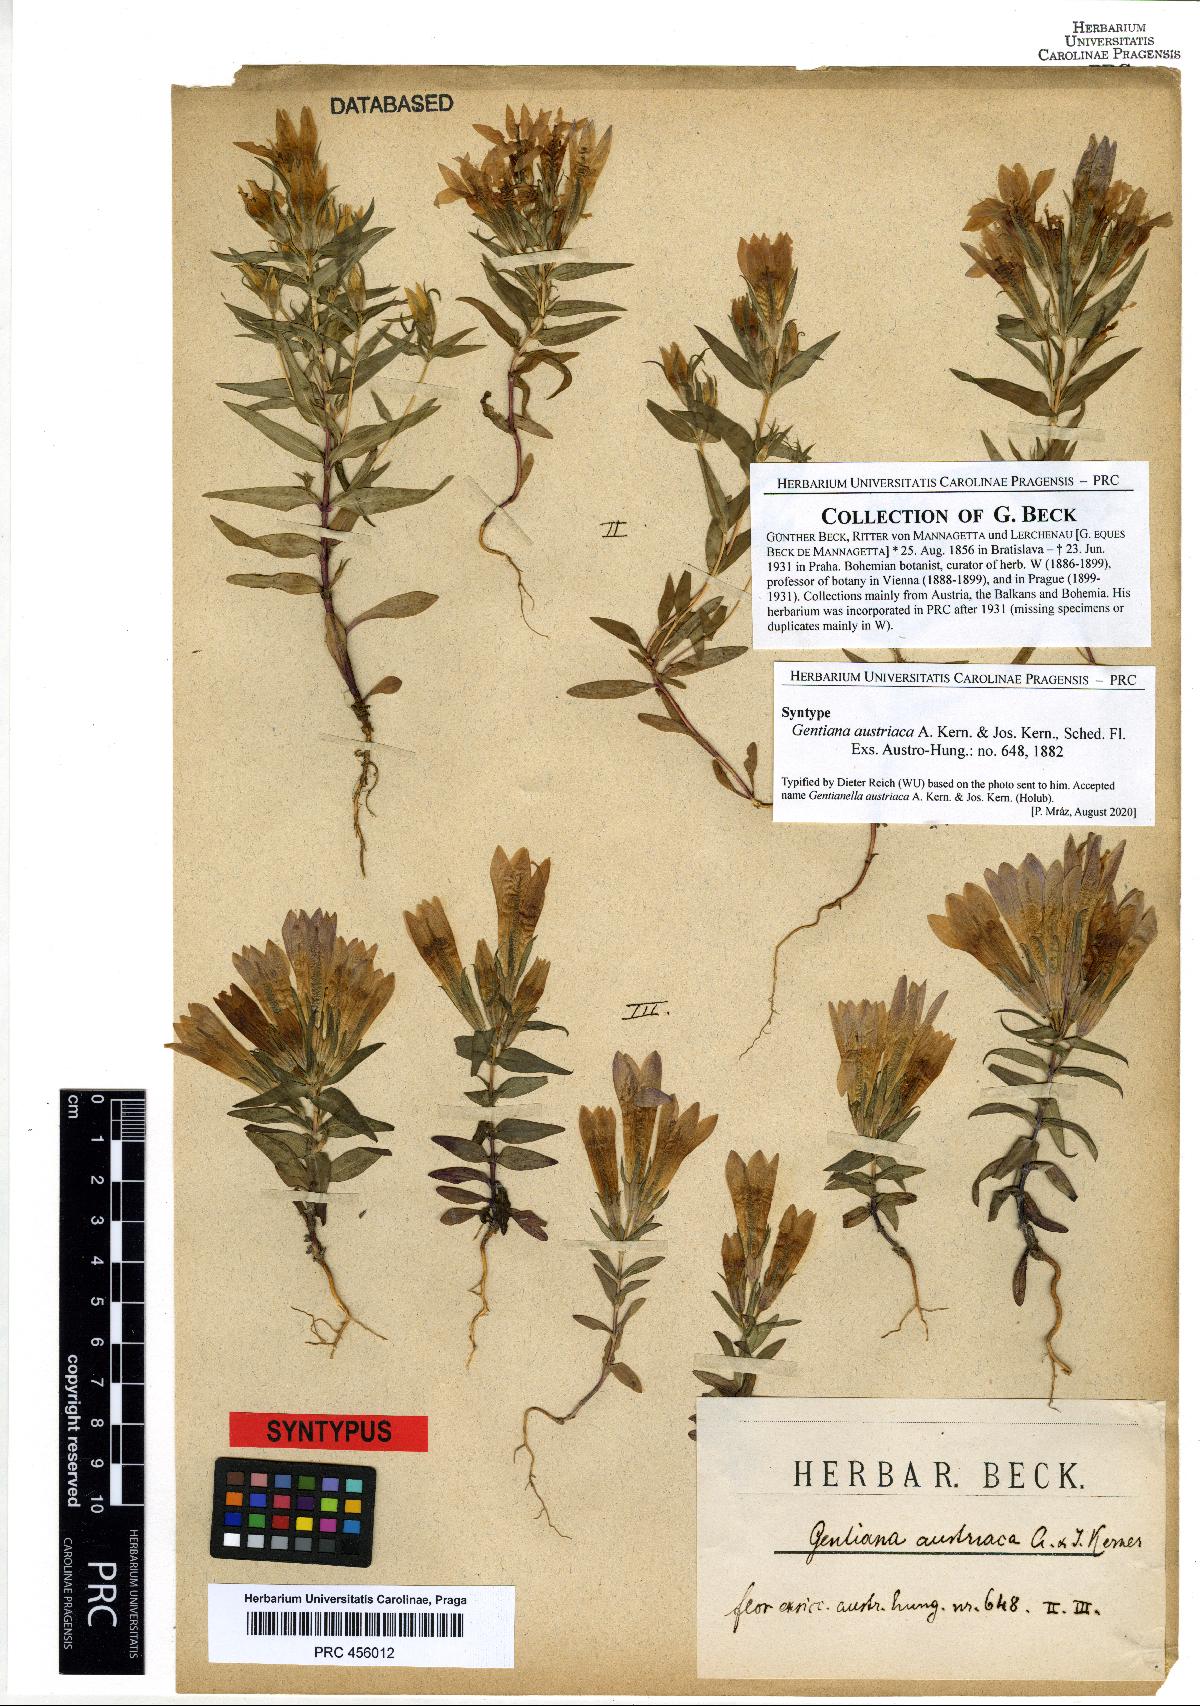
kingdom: Plantae
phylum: Tracheophyta
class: Magnoliopsida
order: Gentianales
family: Gentianaceae
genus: Gentianella
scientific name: Gentianella austriaca
